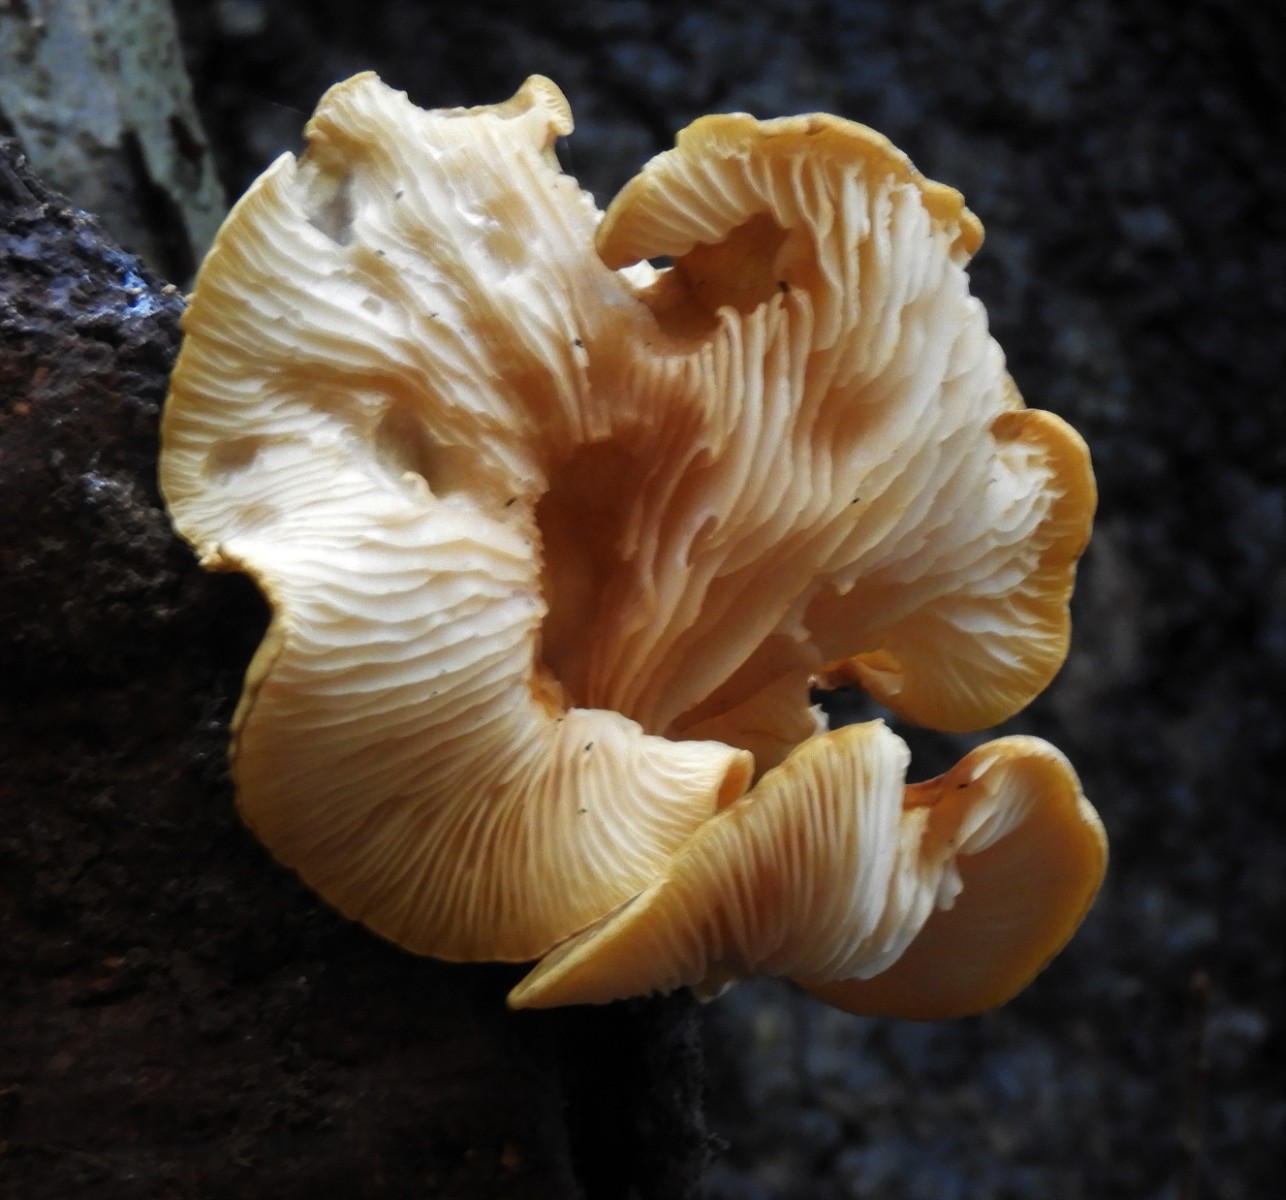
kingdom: Fungi
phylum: Basidiomycota
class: Agaricomycetes
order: Agaricales
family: Sarcomyxaceae
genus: Sarcomyxa
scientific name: Sarcomyxa serotina
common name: gummihat
